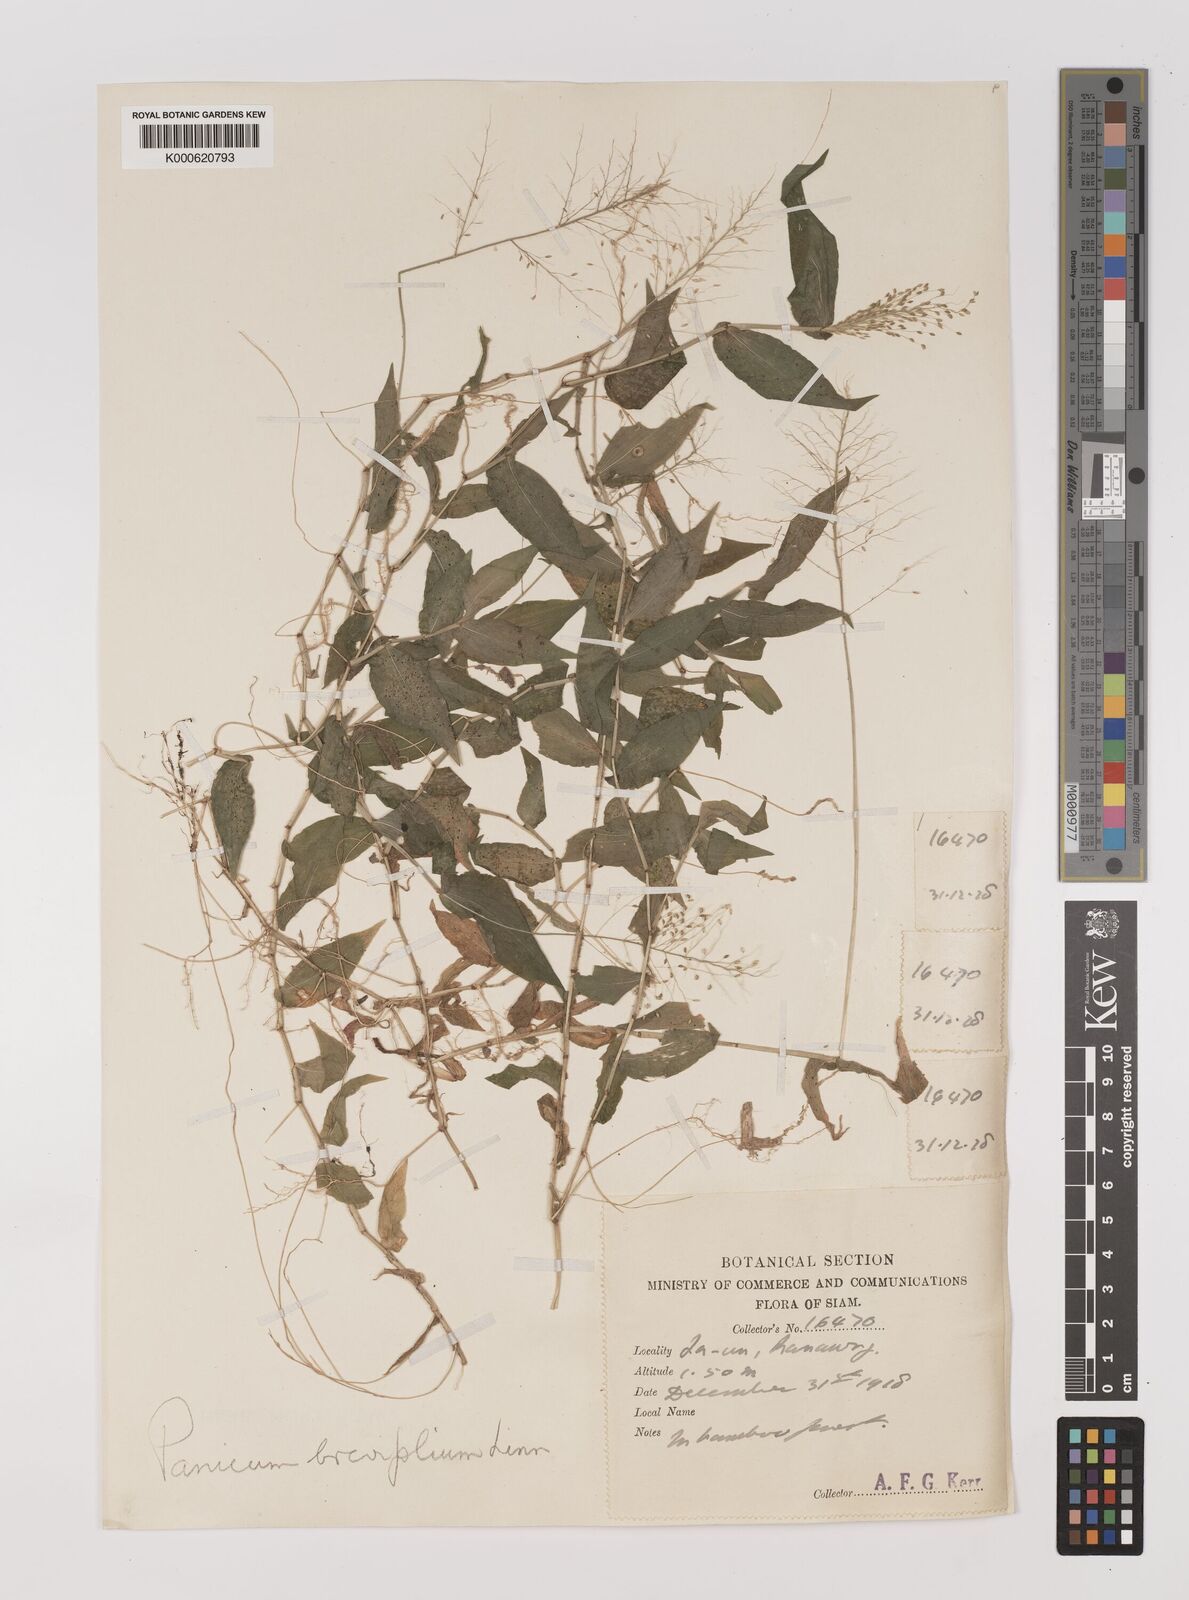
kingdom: Plantae
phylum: Tracheophyta
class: Liliopsida
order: Poales
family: Poaceae
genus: Panicum
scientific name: Panicum brevifolium
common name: Shortleaf panic grass
